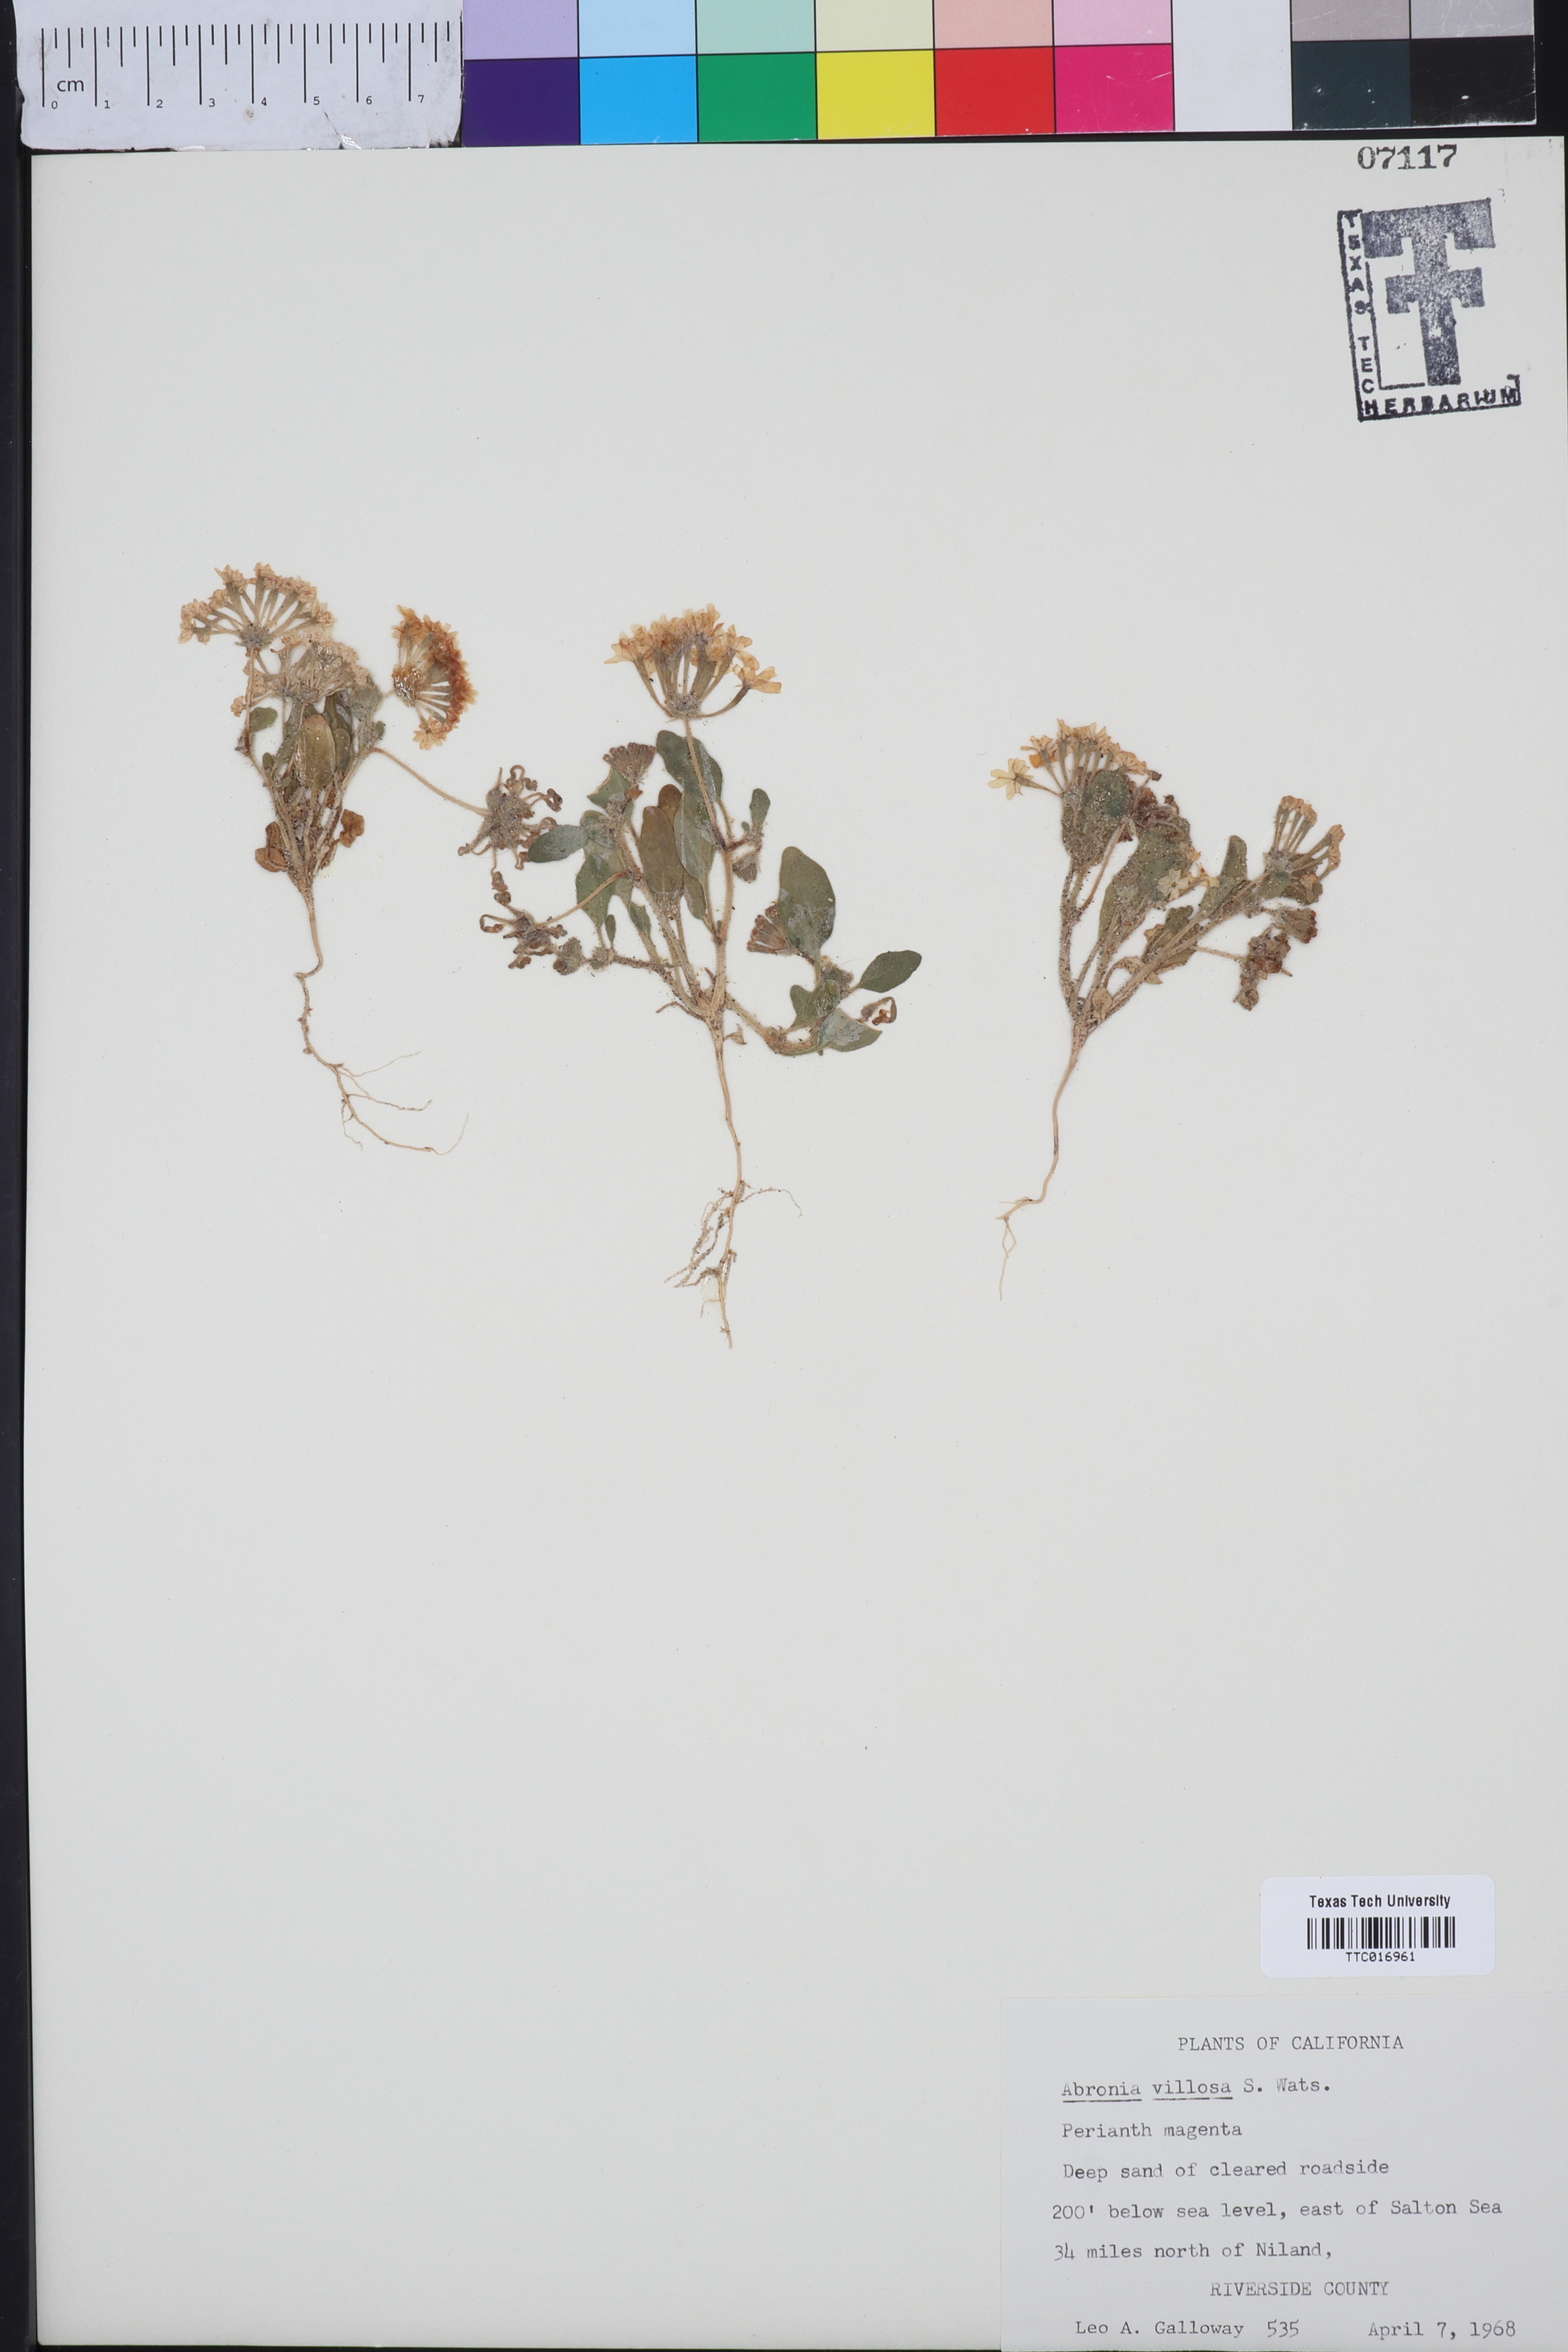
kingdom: Plantae
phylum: Tracheophyta
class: Magnoliopsida
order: Caryophyllales
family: Nyctaginaceae
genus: Abronia
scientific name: Abronia villosa
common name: Desert sand-verbena
